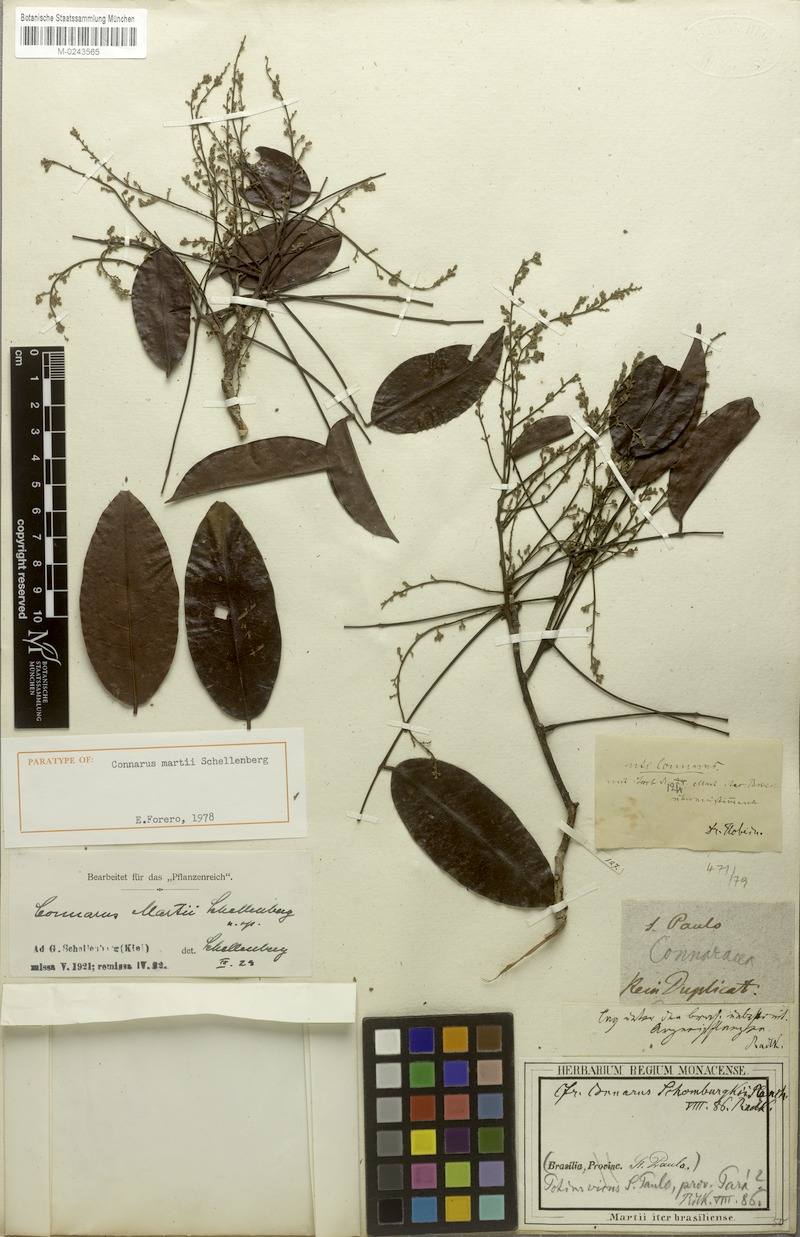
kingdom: Plantae
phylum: Tracheophyta
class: Magnoliopsida
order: Oxalidales
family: Connaraceae
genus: Connarus
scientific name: Connarus martii
